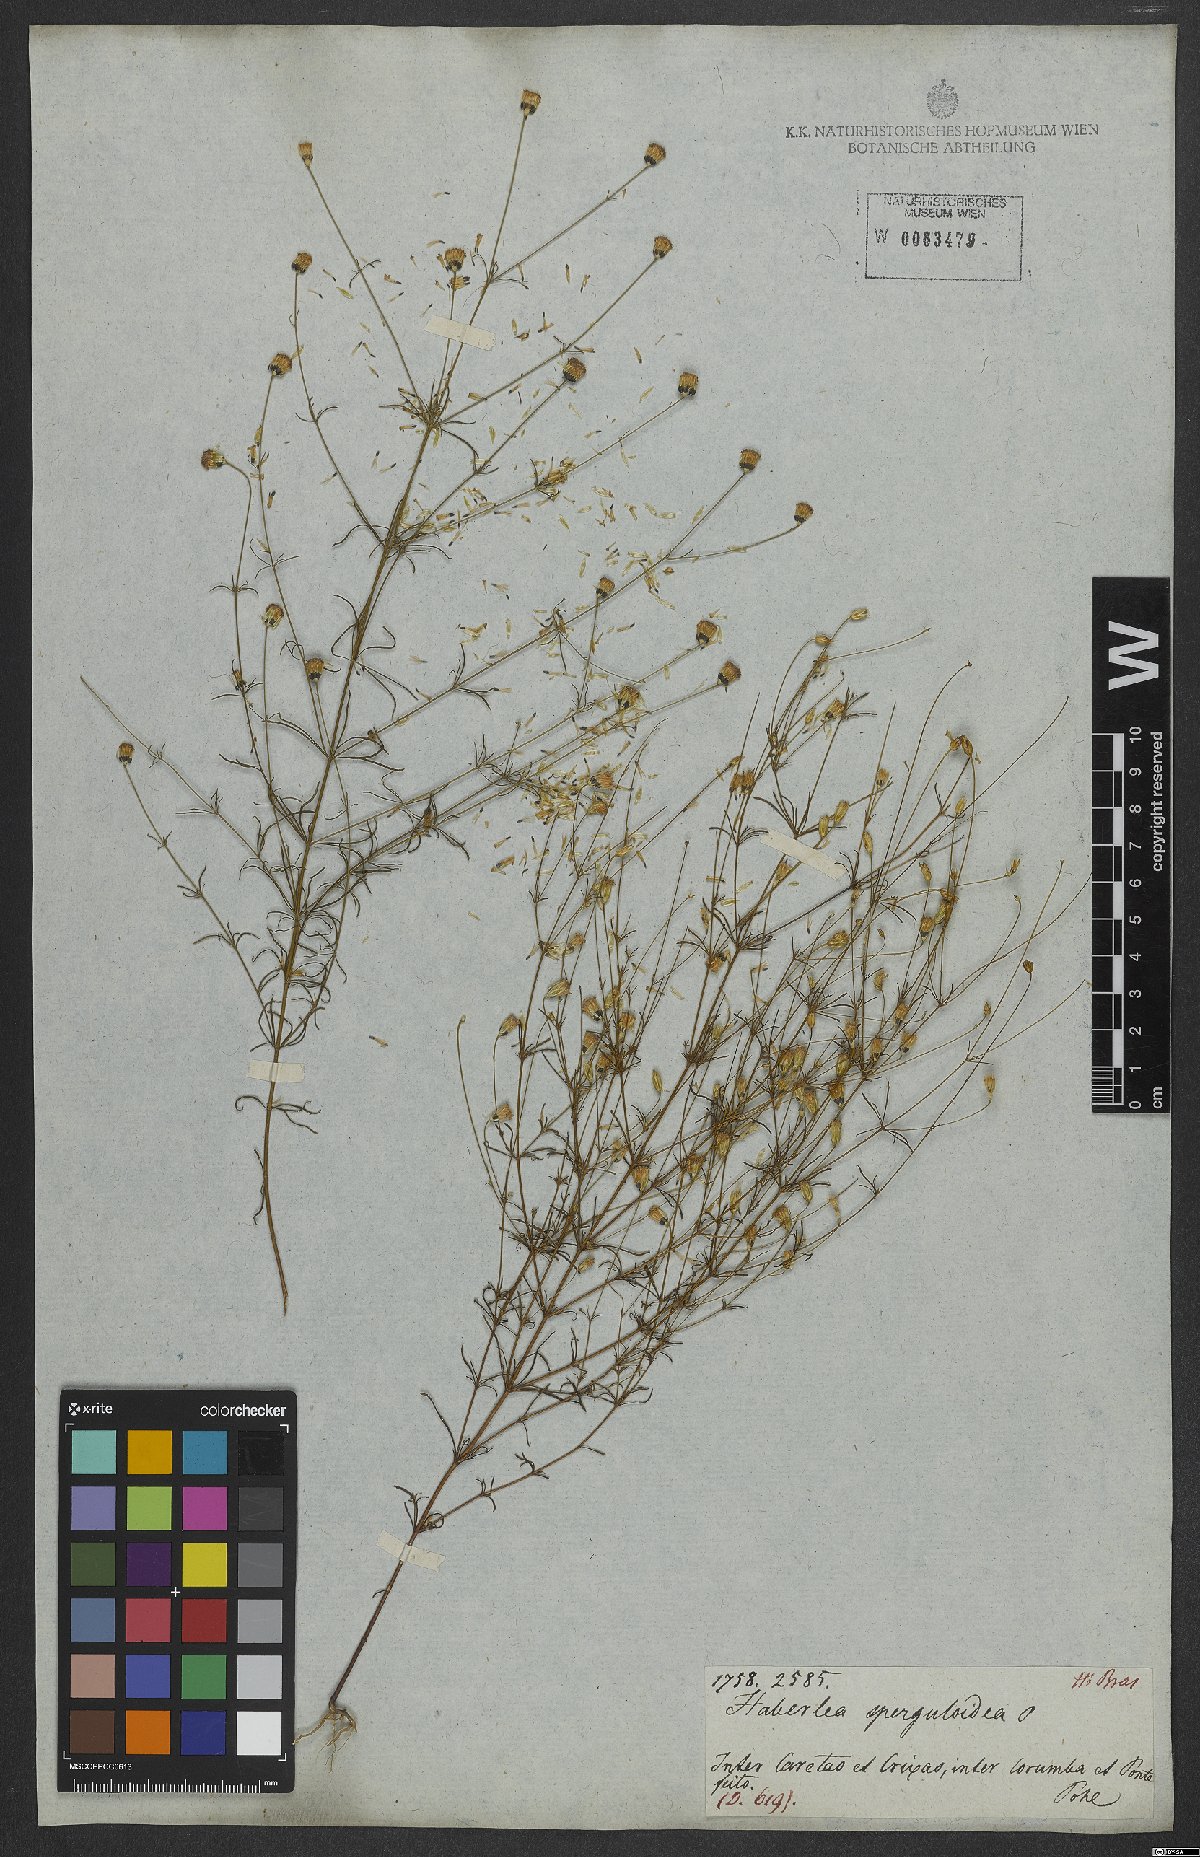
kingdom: Plantae
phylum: Tracheophyta
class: Magnoliopsida
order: Asterales
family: Asteraceae
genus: Praxelis
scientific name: Praxelis capillaris
